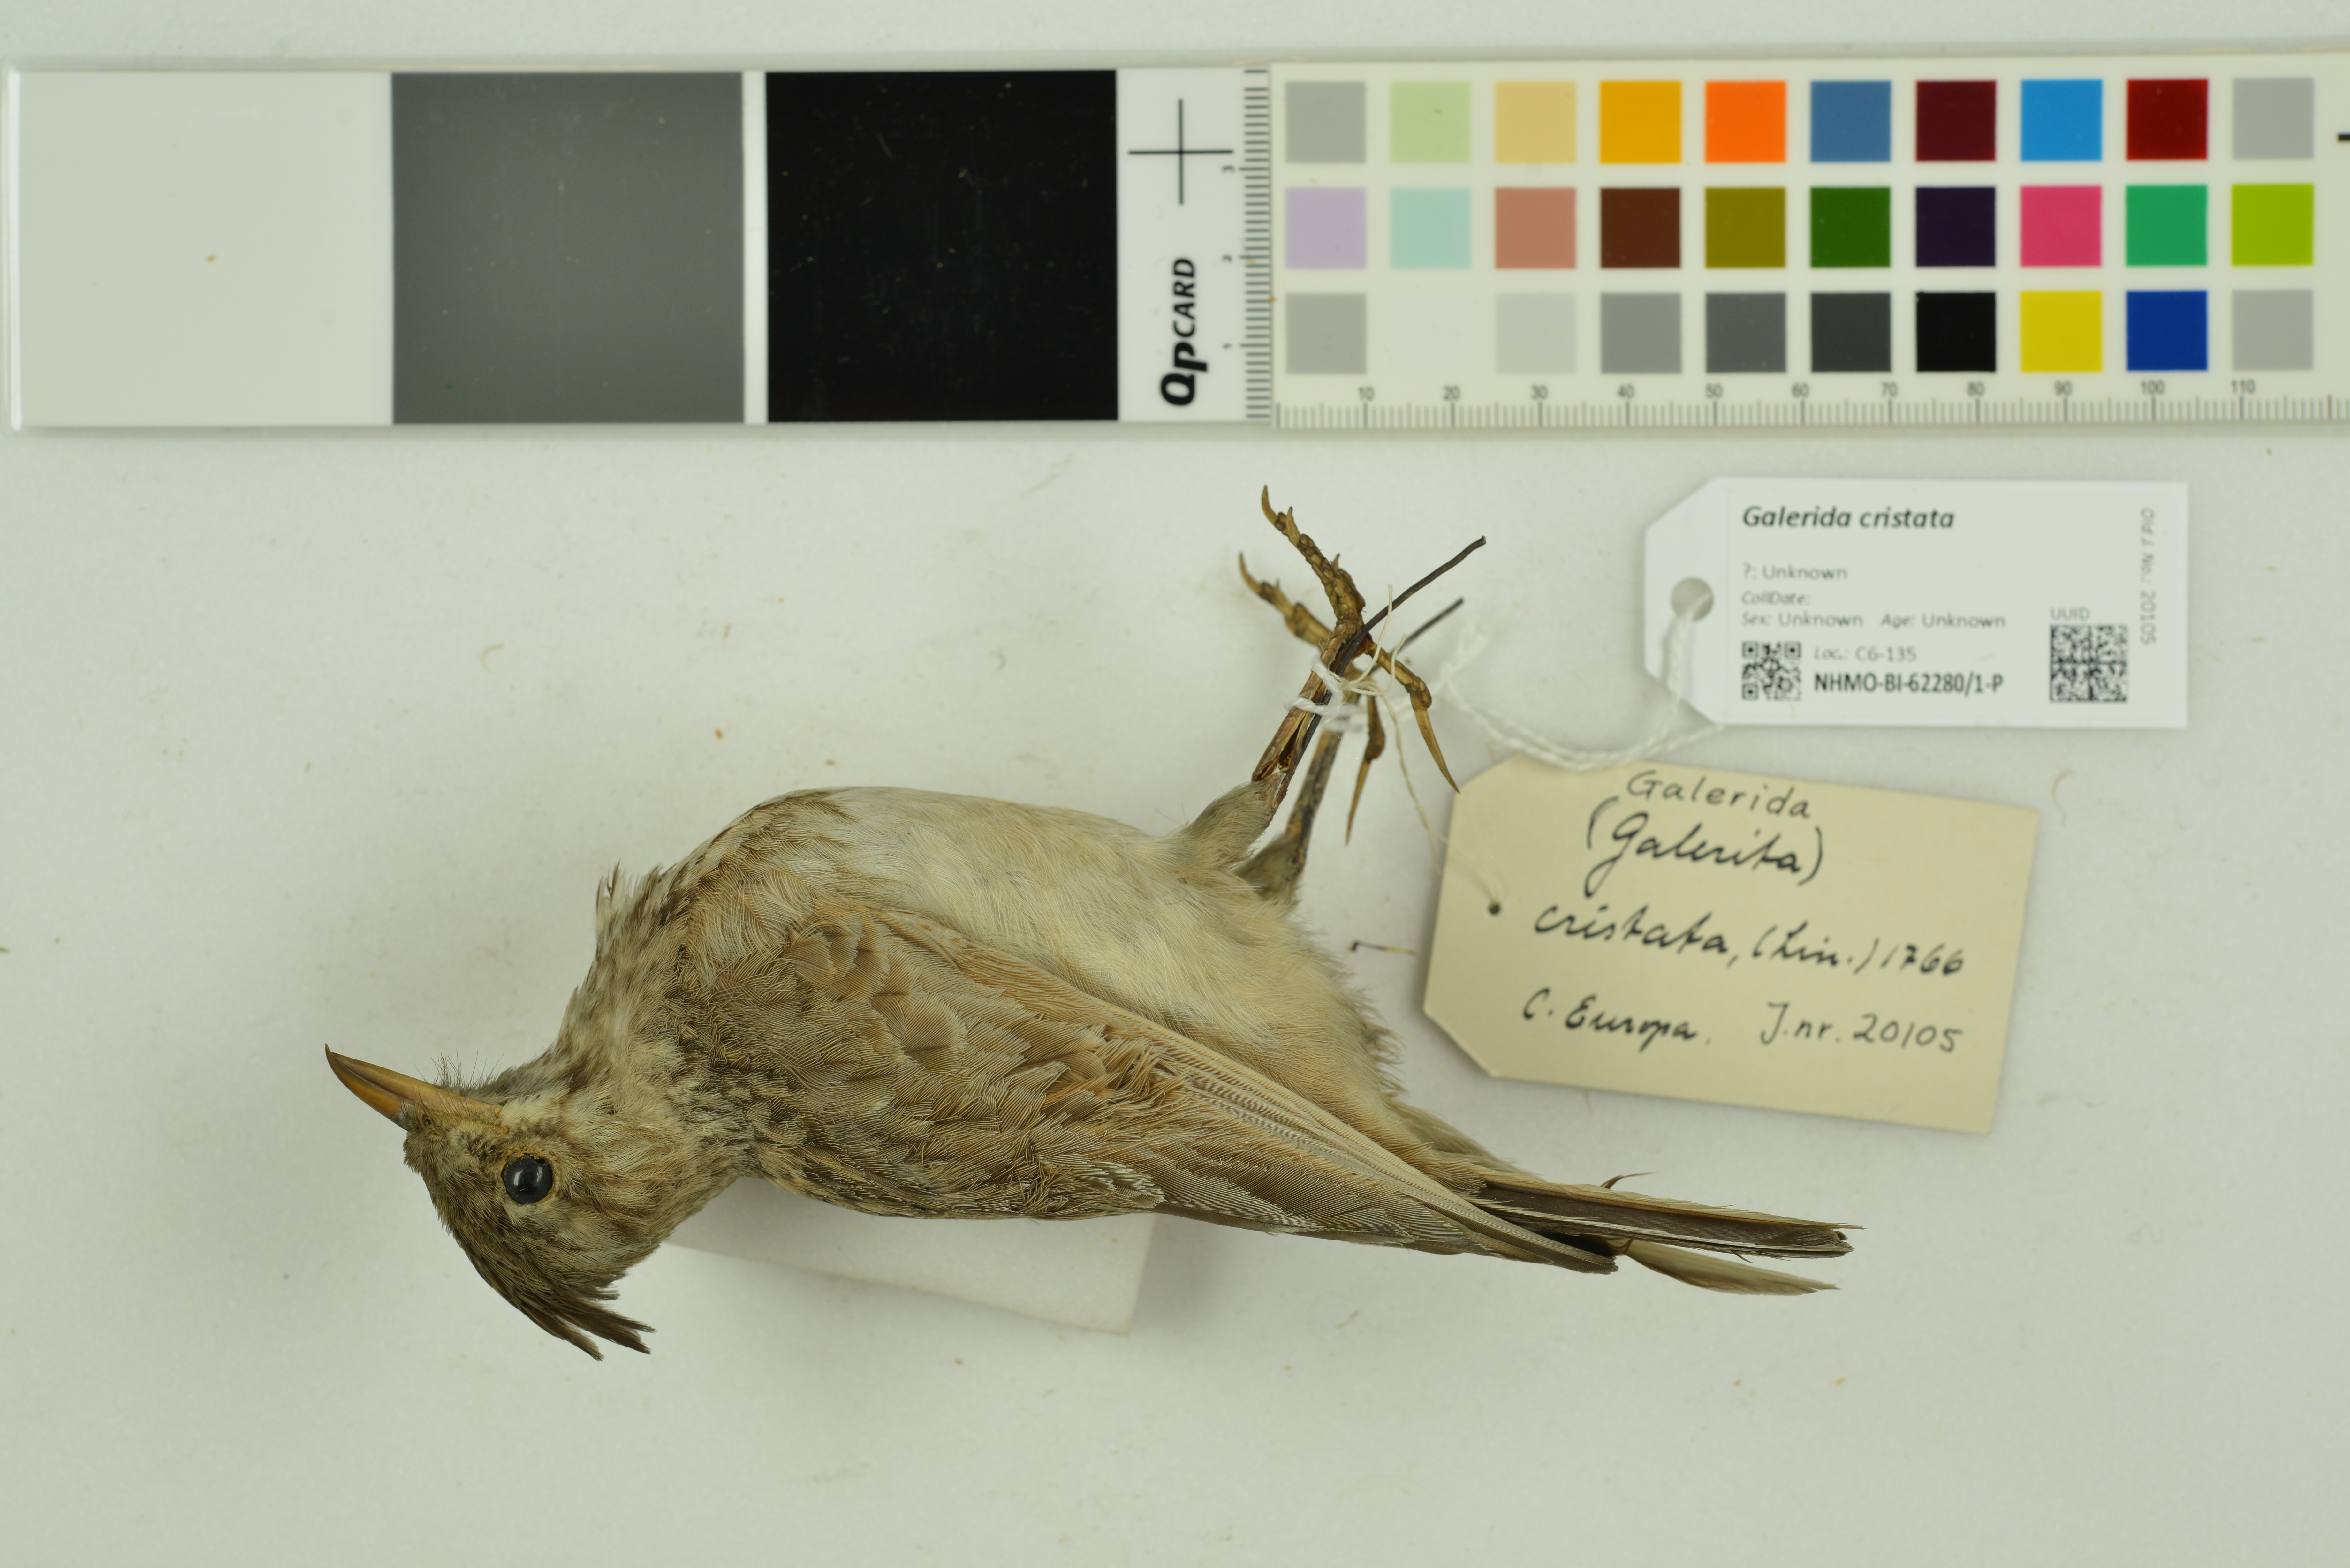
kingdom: Animalia
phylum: Chordata
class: Aves
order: Passeriformes
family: Alaudidae
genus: Galerida
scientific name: Galerida cristata
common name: Crested lark
